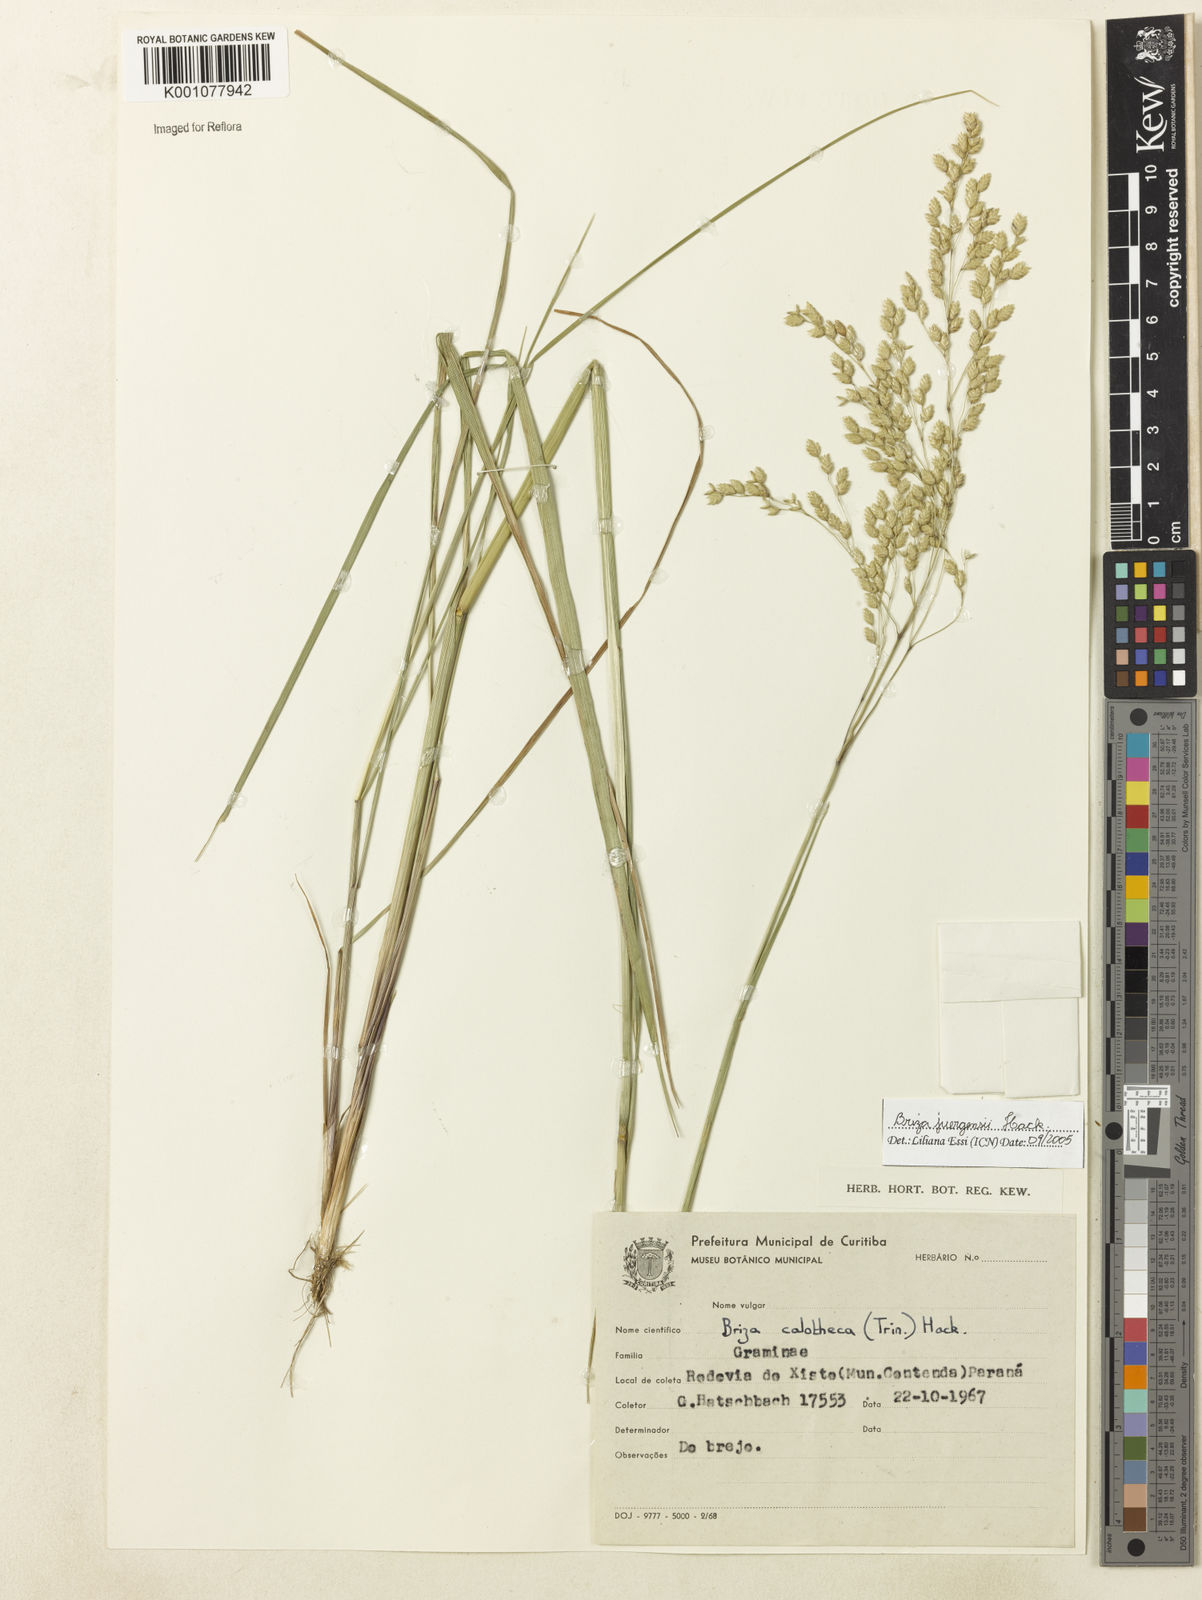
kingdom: Plantae
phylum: Tracheophyta
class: Liliopsida
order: Poales
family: Poaceae
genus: Poidium
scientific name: Poidium juergensii
